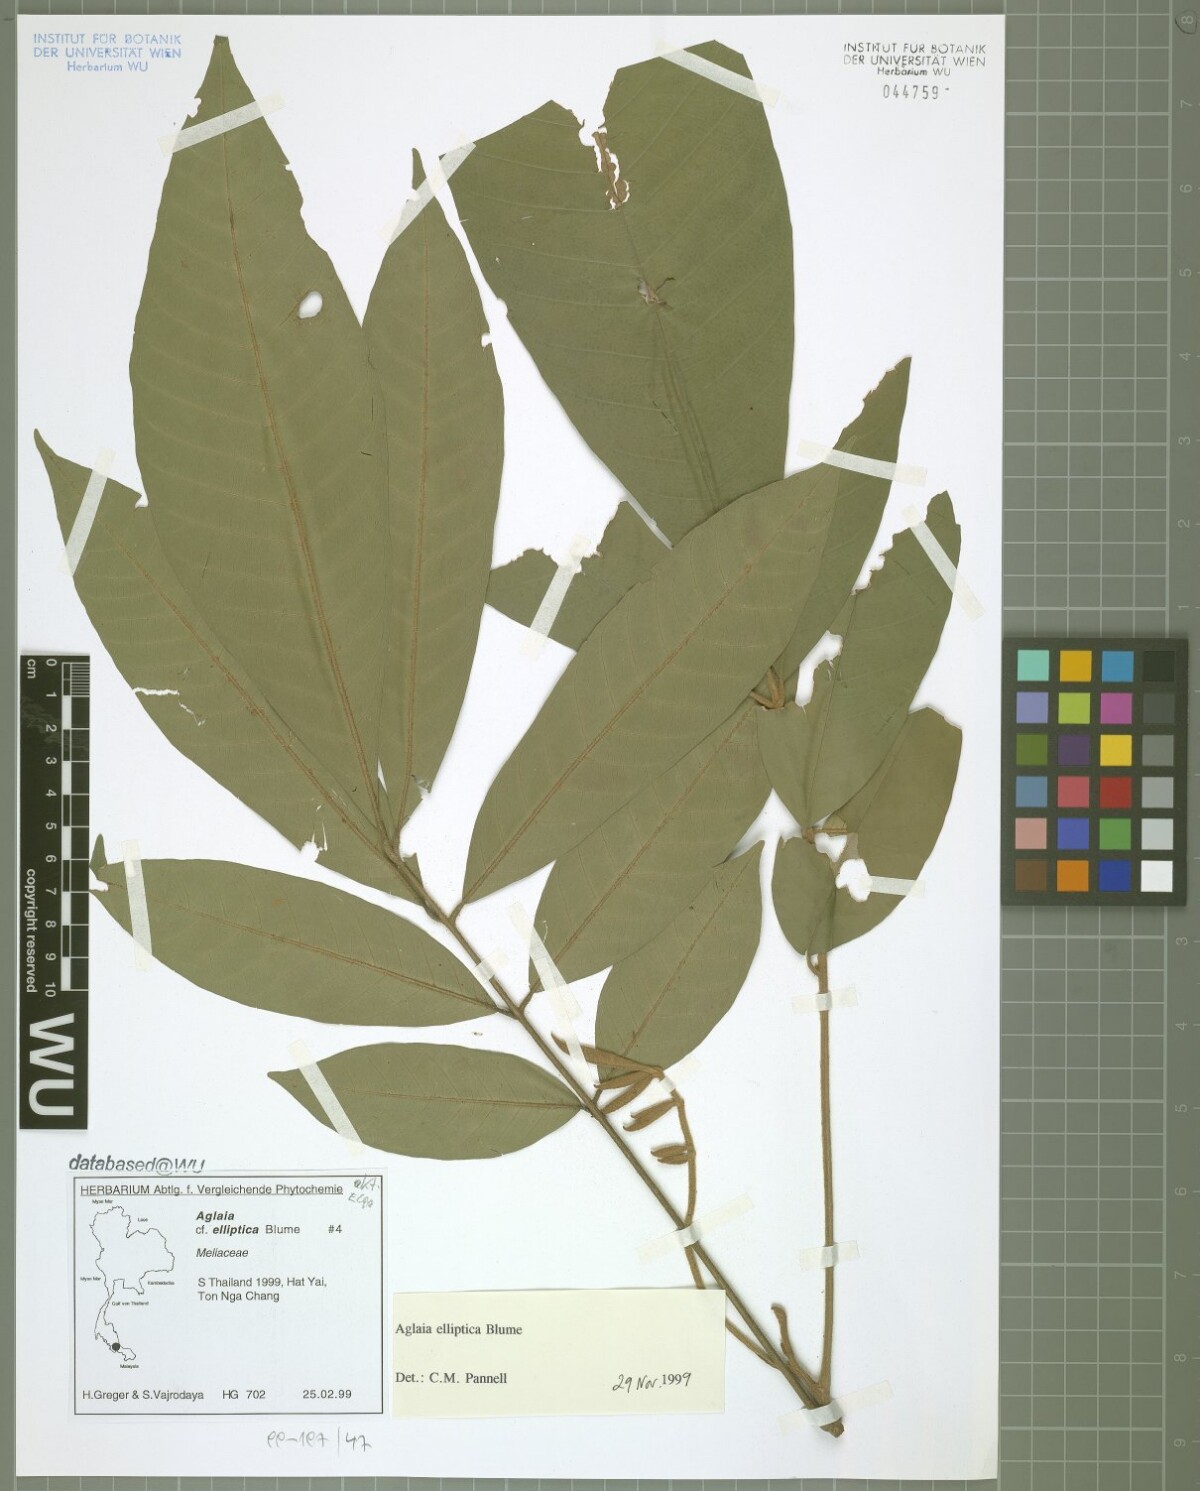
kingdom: Plantae
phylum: Tracheophyta
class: Magnoliopsida
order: Sapindales
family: Meliaceae
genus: Aglaia
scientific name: Aglaia elliptica
